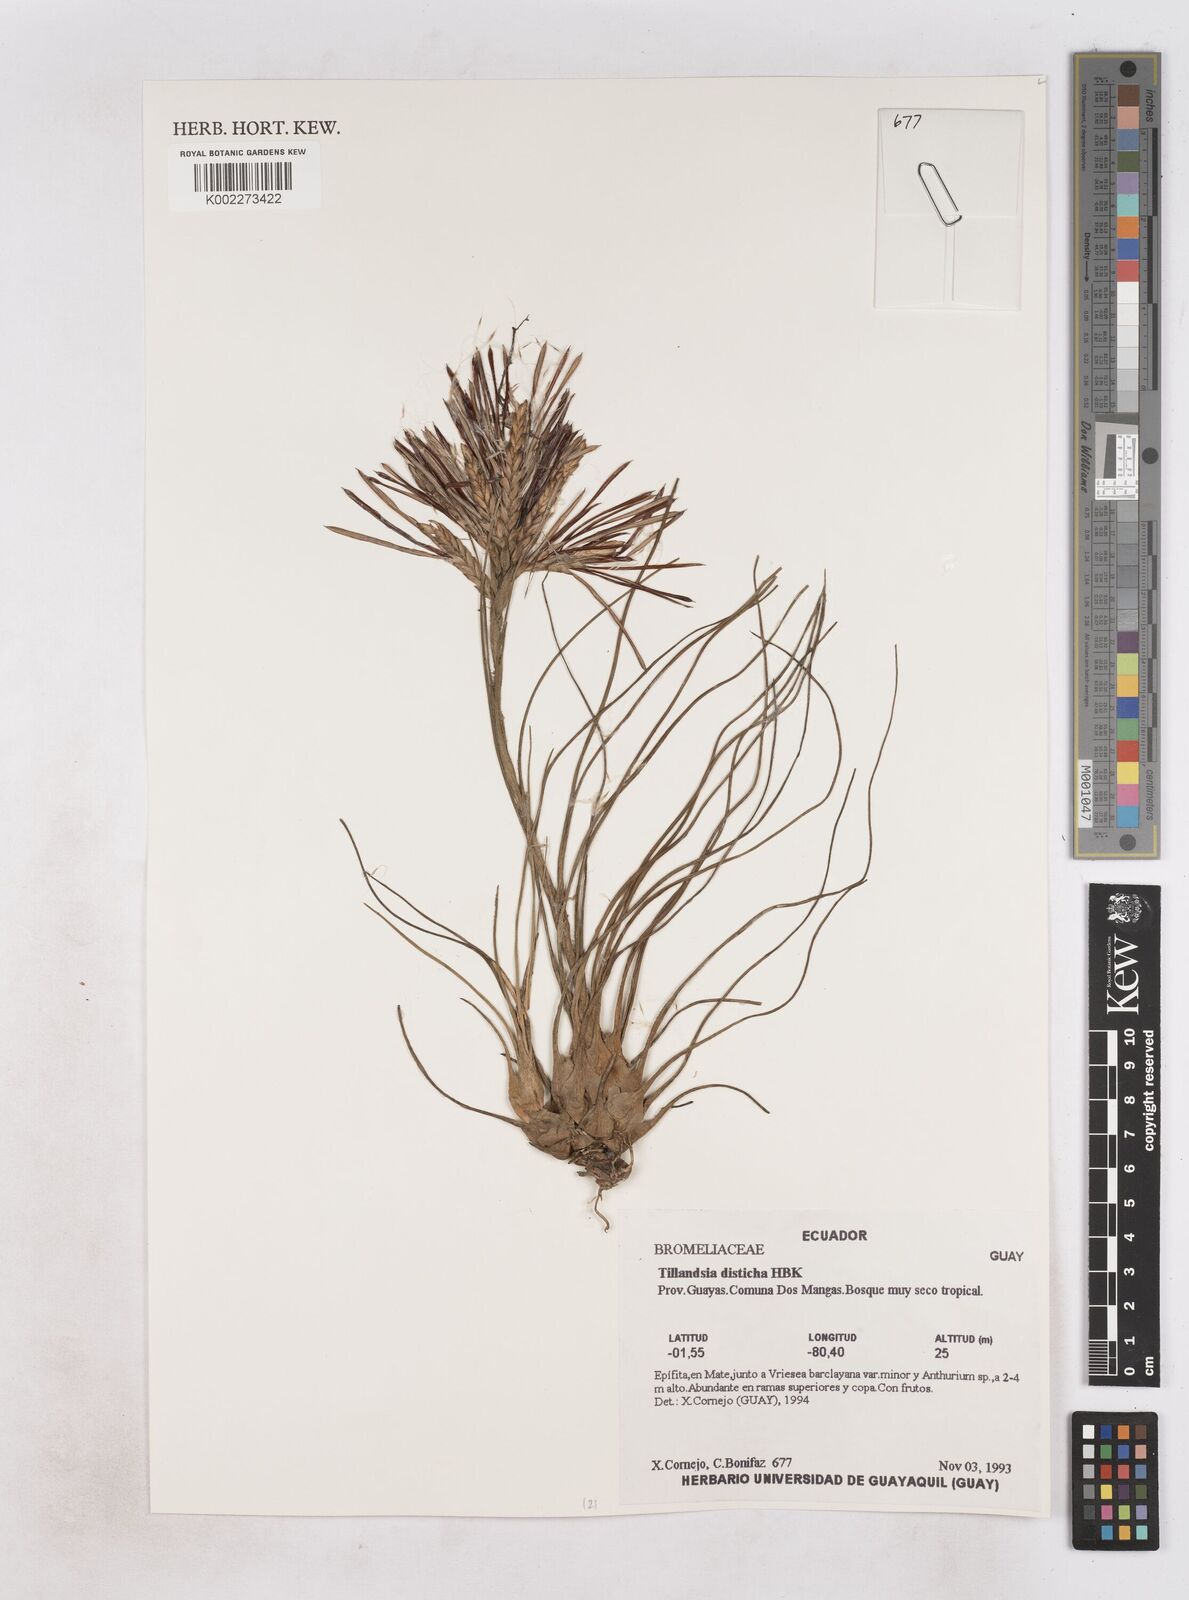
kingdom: Plantae
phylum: Tracheophyta
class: Liliopsida
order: Poales
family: Bromeliaceae
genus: Tillandsia
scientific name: Tillandsia
